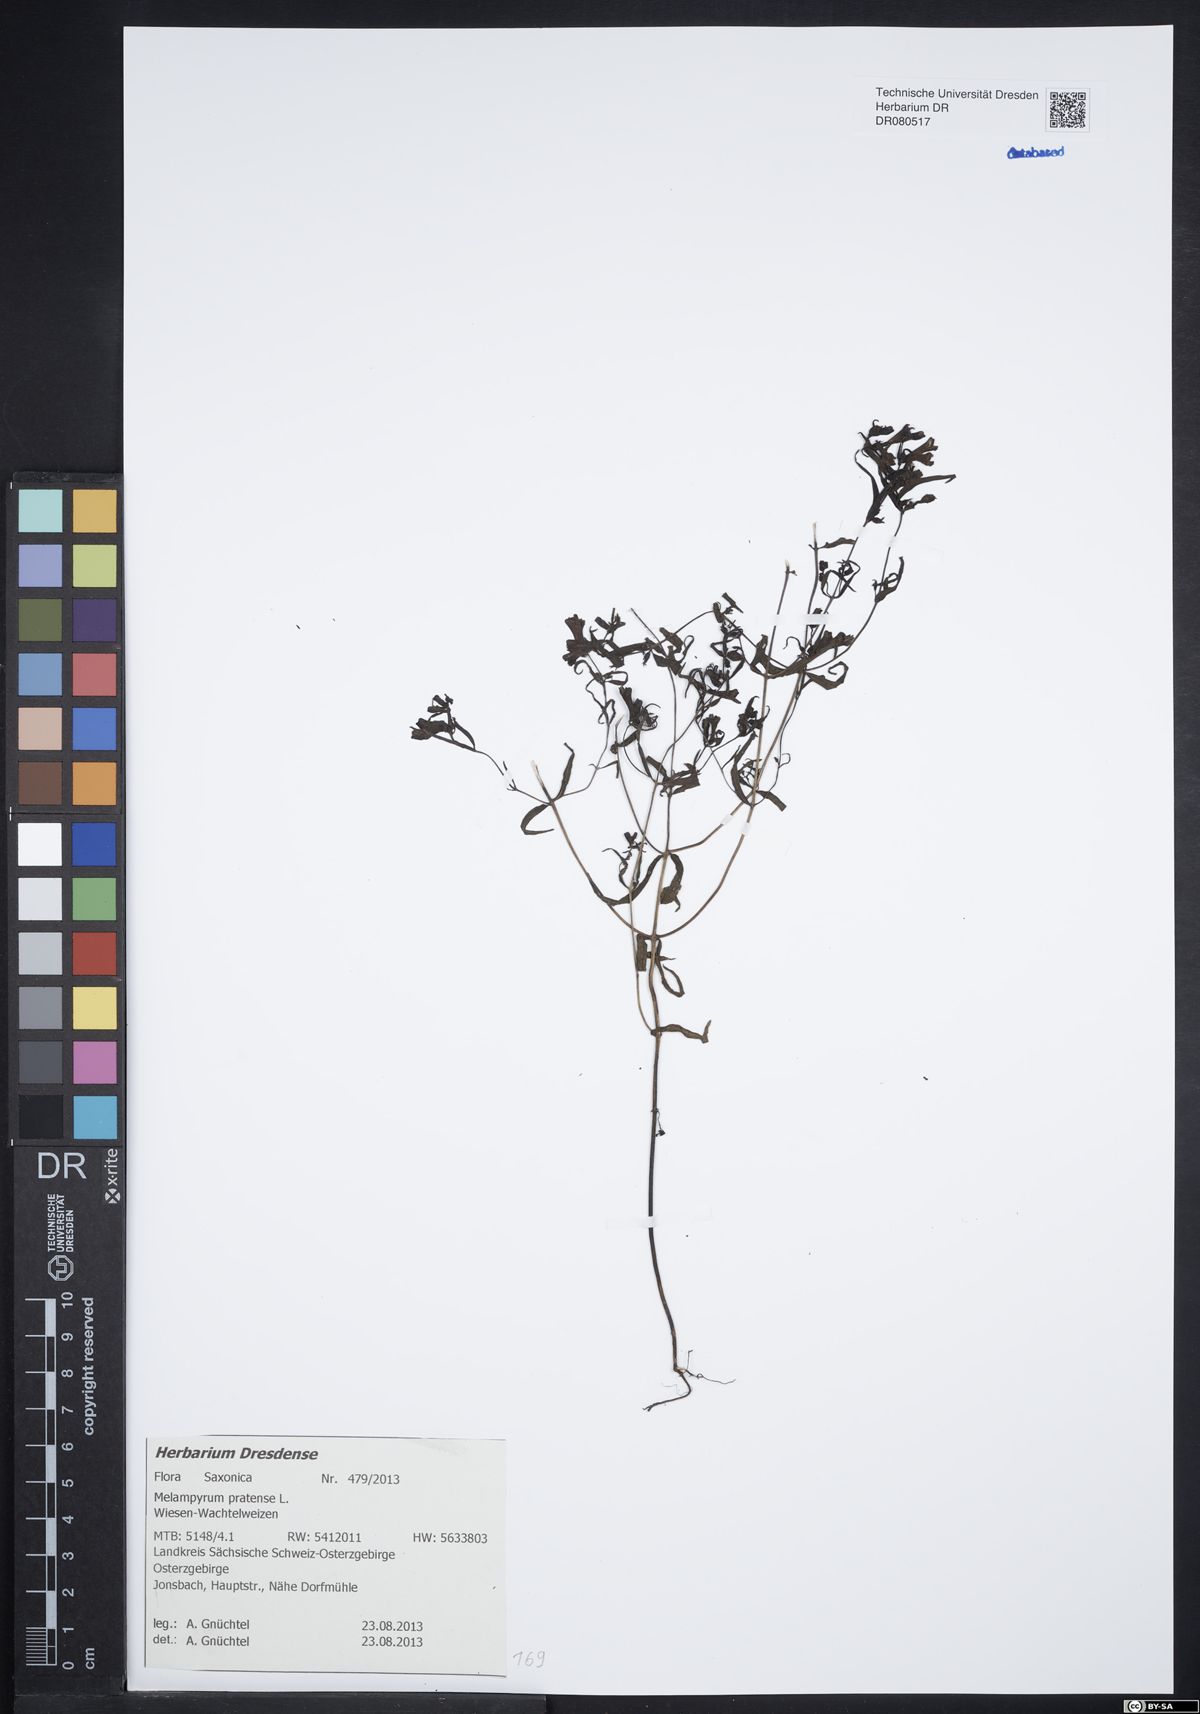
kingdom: Plantae
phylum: Tracheophyta
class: Magnoliopsida
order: Lamiales
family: Orobanchaceae
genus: Melampyrum
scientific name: Melampyrum pratense
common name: Common cow-wheat
